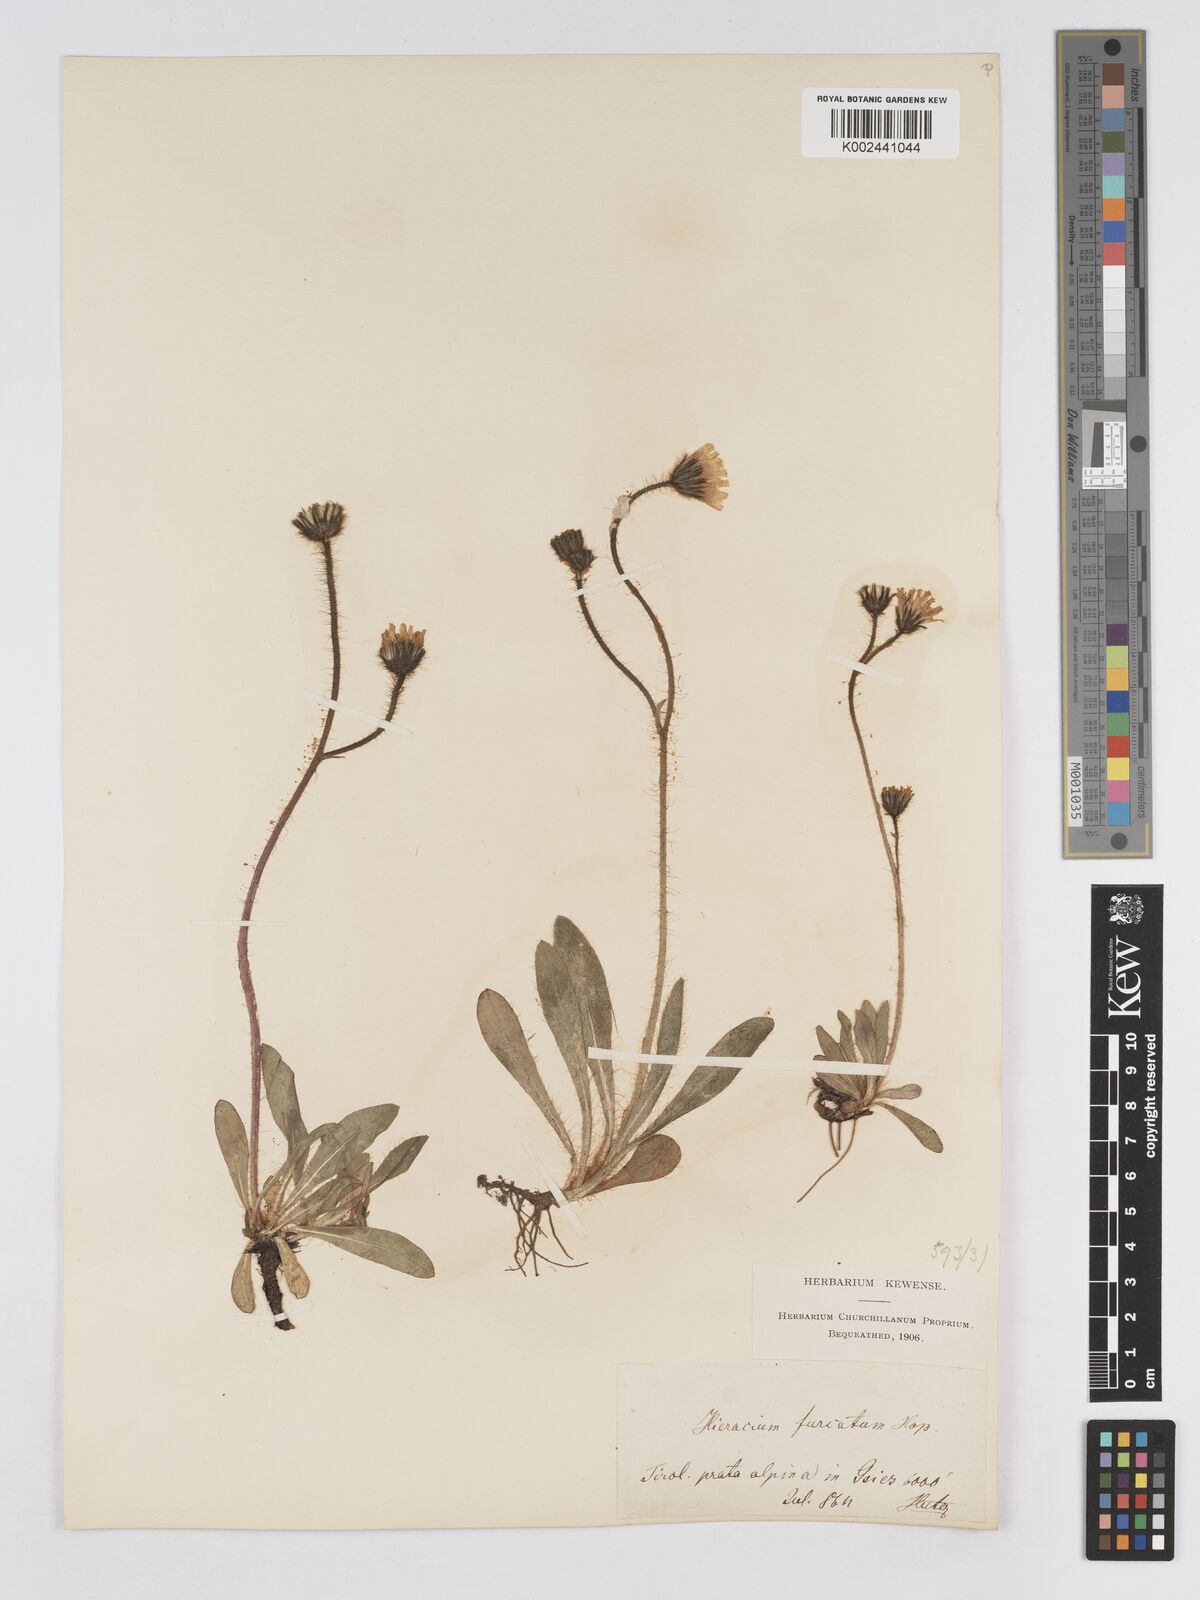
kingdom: Plantae
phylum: Tracheophyta
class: Magnoliopsida
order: Asterales
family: Asteraceae
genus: Pilosella
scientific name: Pilosella sphaerocephala
